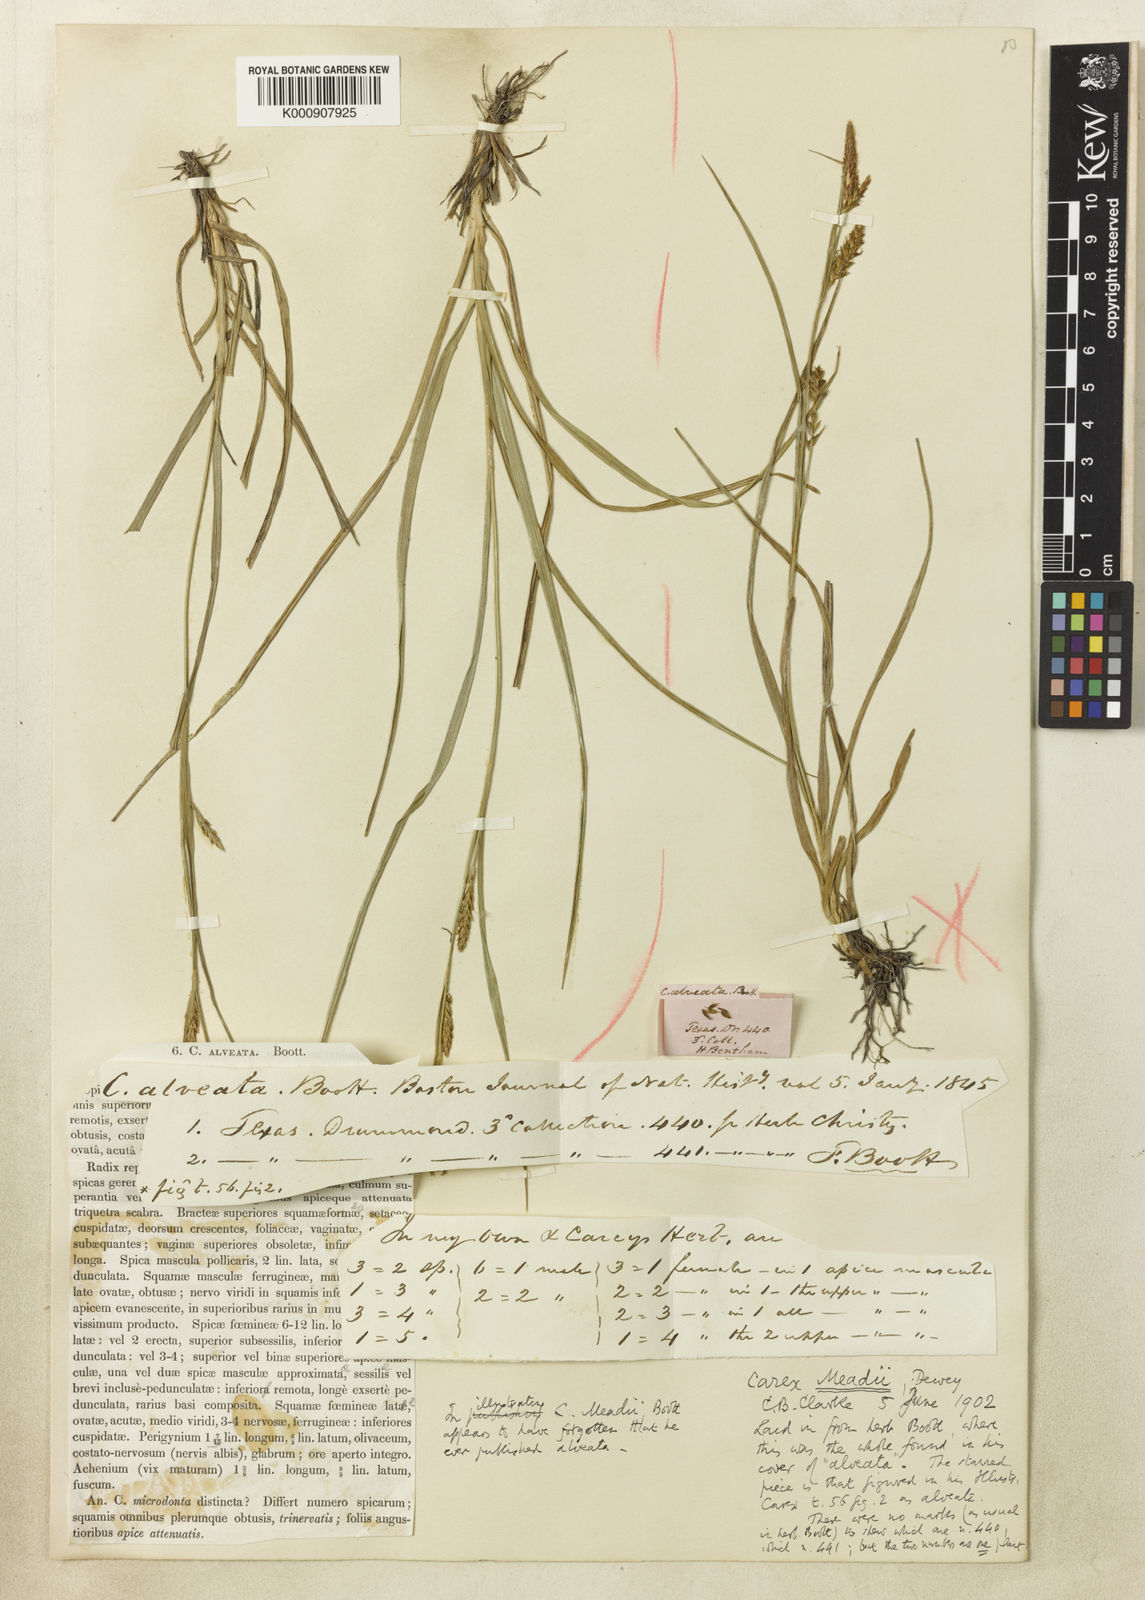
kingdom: Plantae
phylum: Tracheophyta
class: Liliopsida
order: Poales
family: Cyperaceae
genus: Carex
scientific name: Carex microdonta
